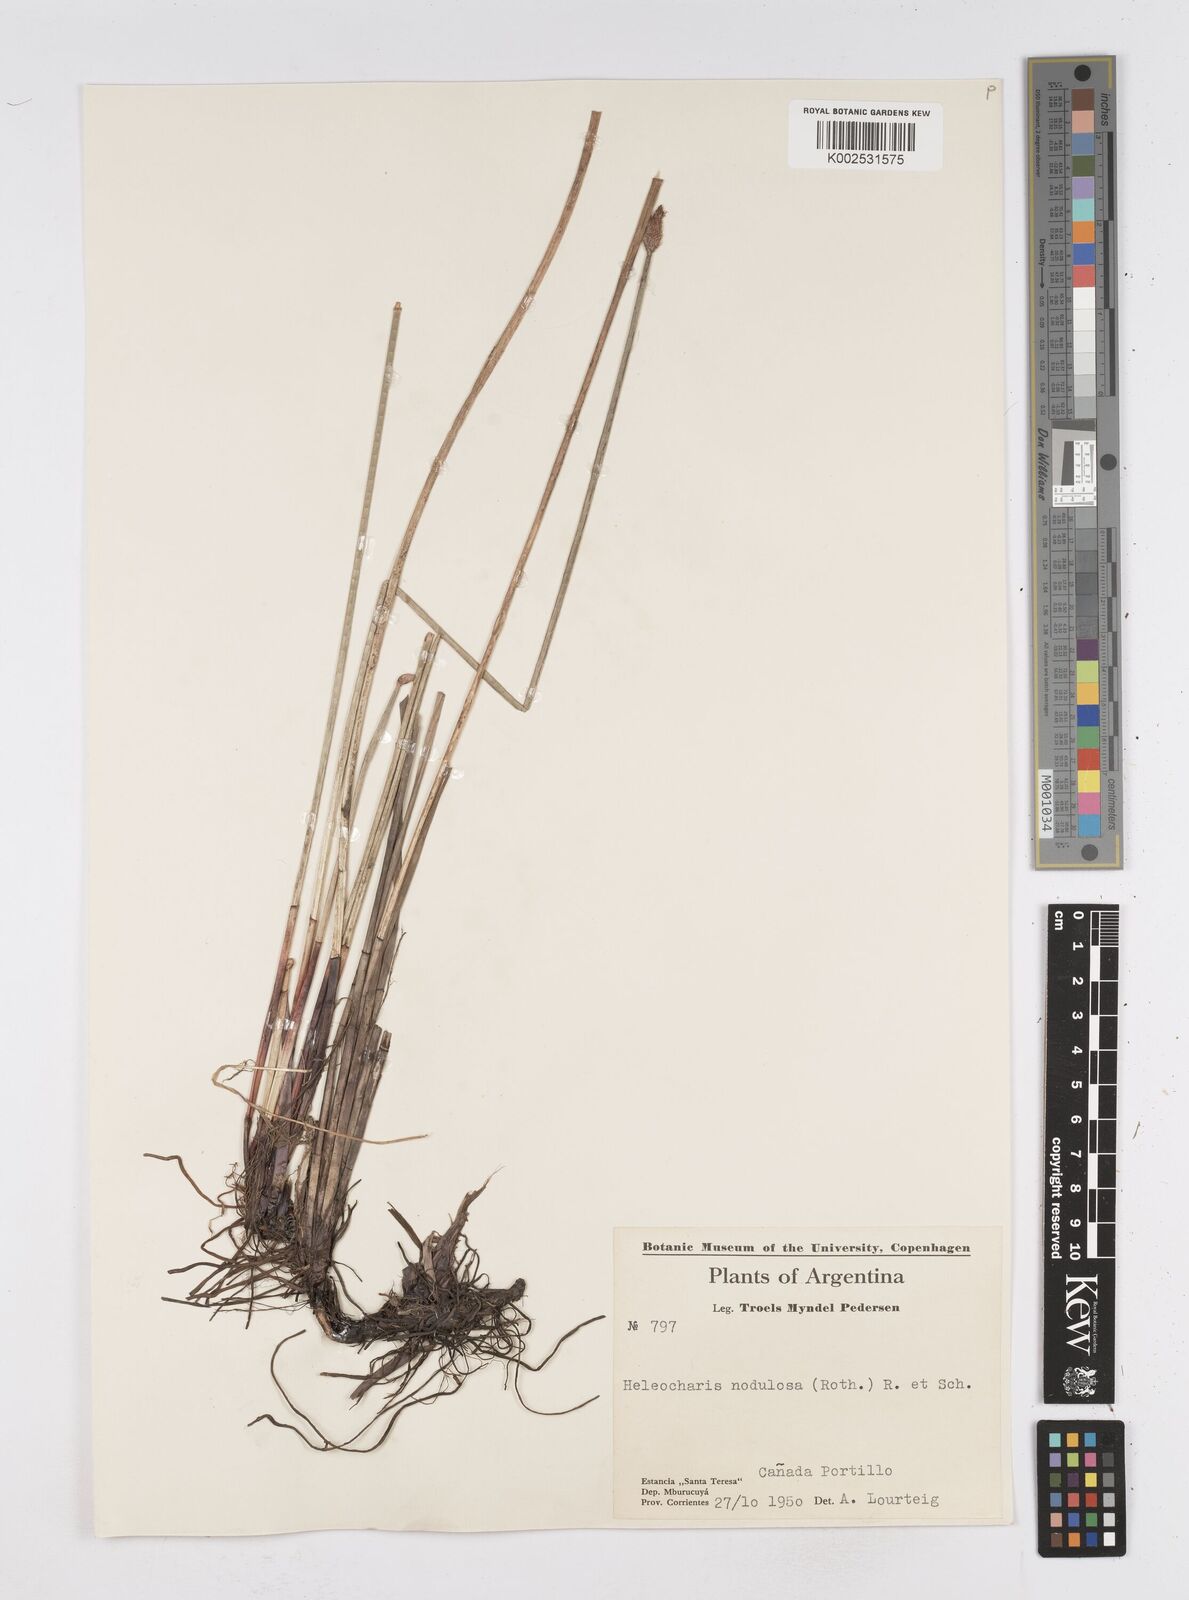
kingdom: Plantae
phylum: Tracheophyta
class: Liliopsida
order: Poales
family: Cyperaceae
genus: Eleocharis
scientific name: Eleocharis montana
